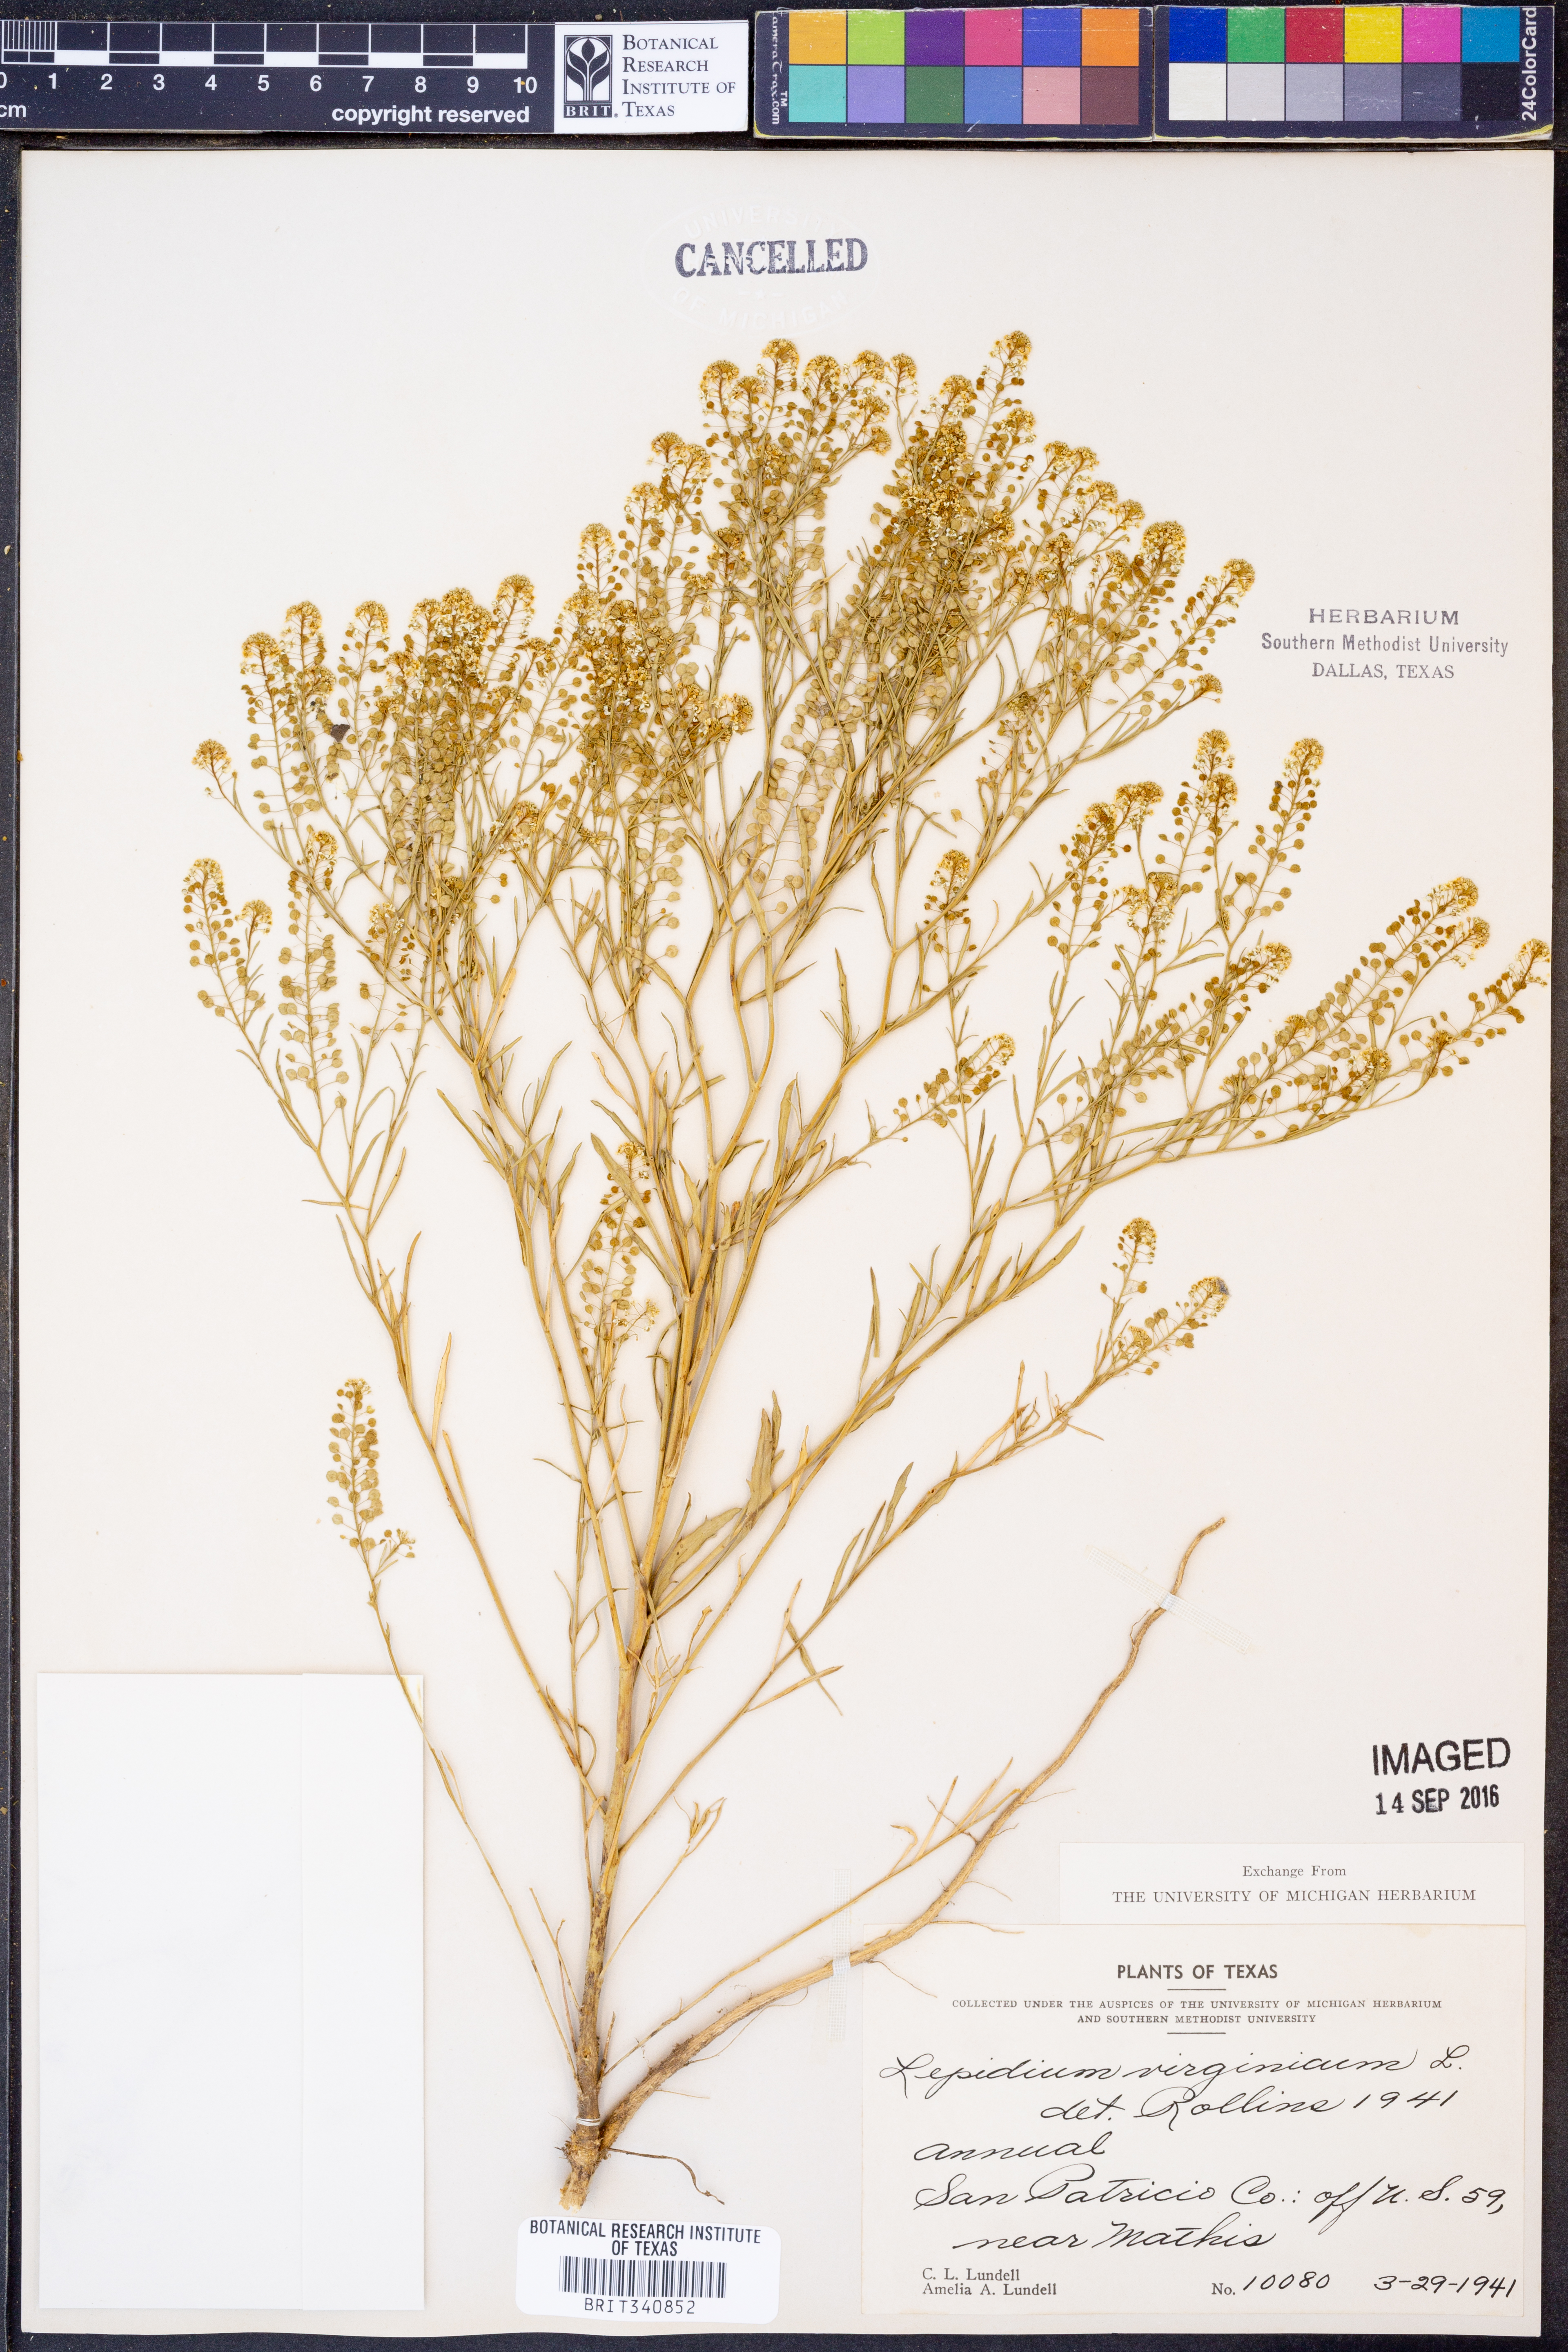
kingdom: Plantae
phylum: Tracheophyta
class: Magnoliopsida
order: Brassicales
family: Brassicaceae
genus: Lepidium
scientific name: Lepidium virginicum
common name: Least pepperwort
